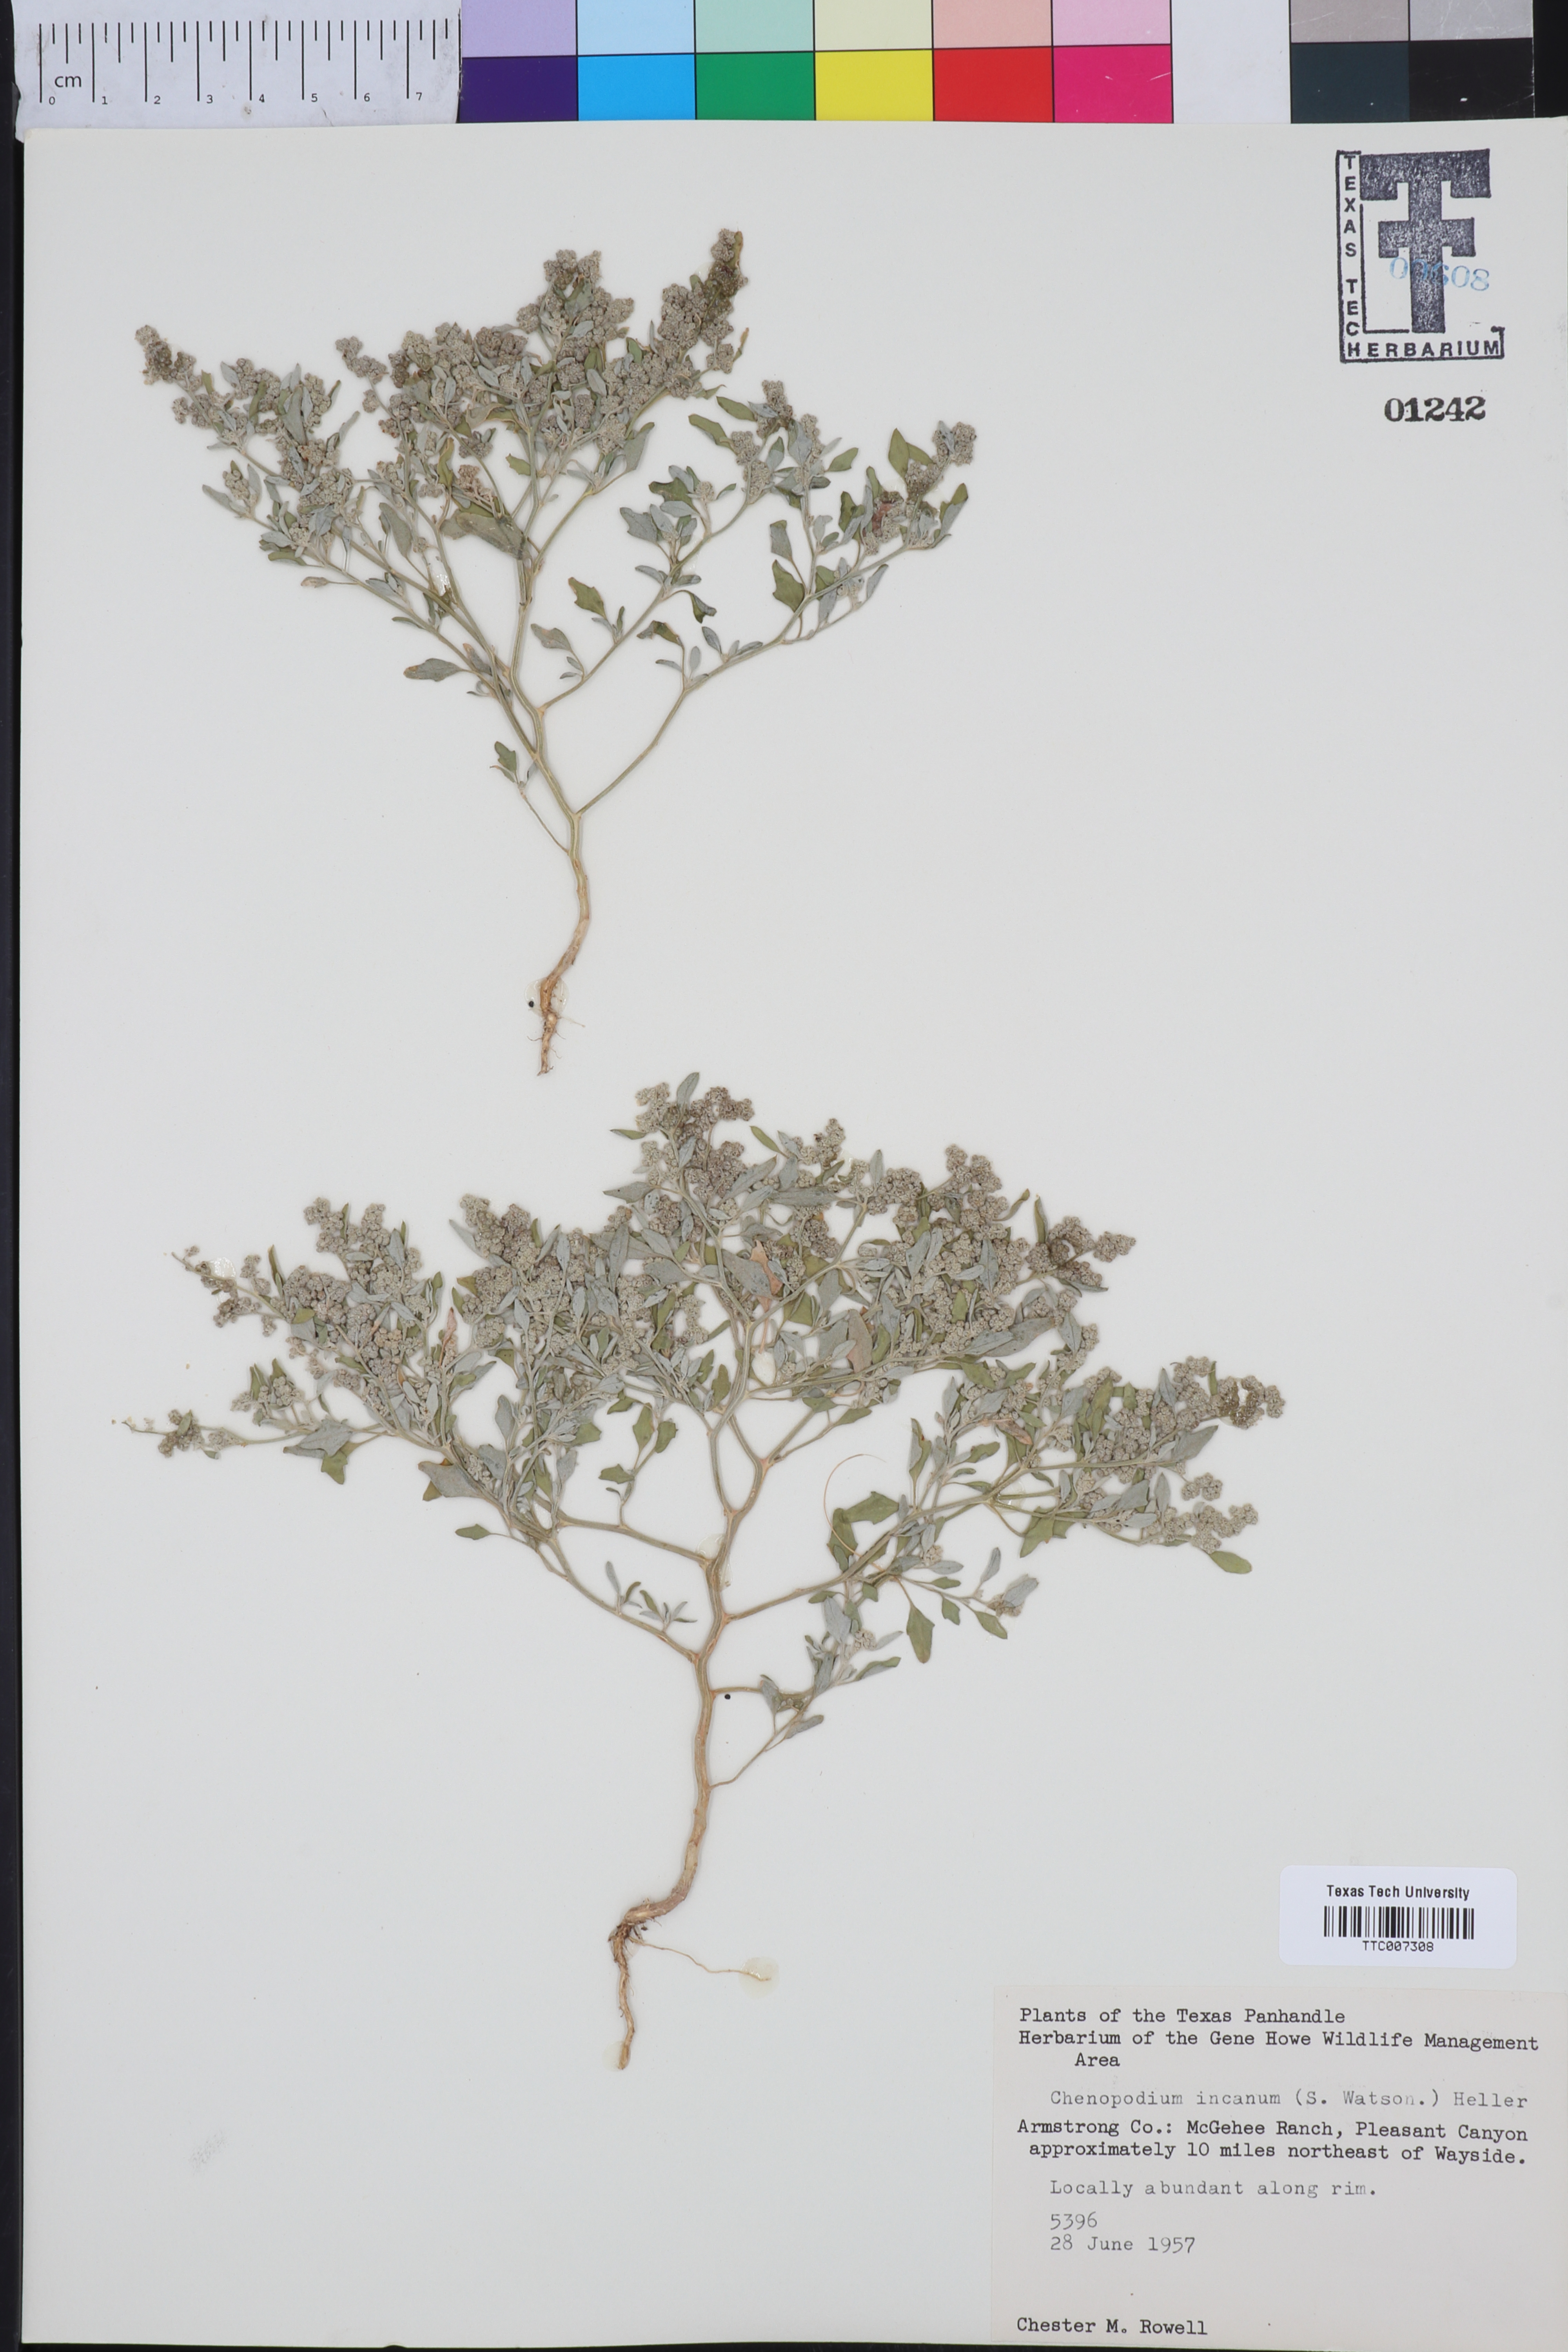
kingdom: Plantae
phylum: Tracheophyta
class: Magnoliopsida
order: Caryophyllales
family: Amaranthaceae
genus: Chenopodium
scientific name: Chenopodium incanum
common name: Hoary goosefoot
